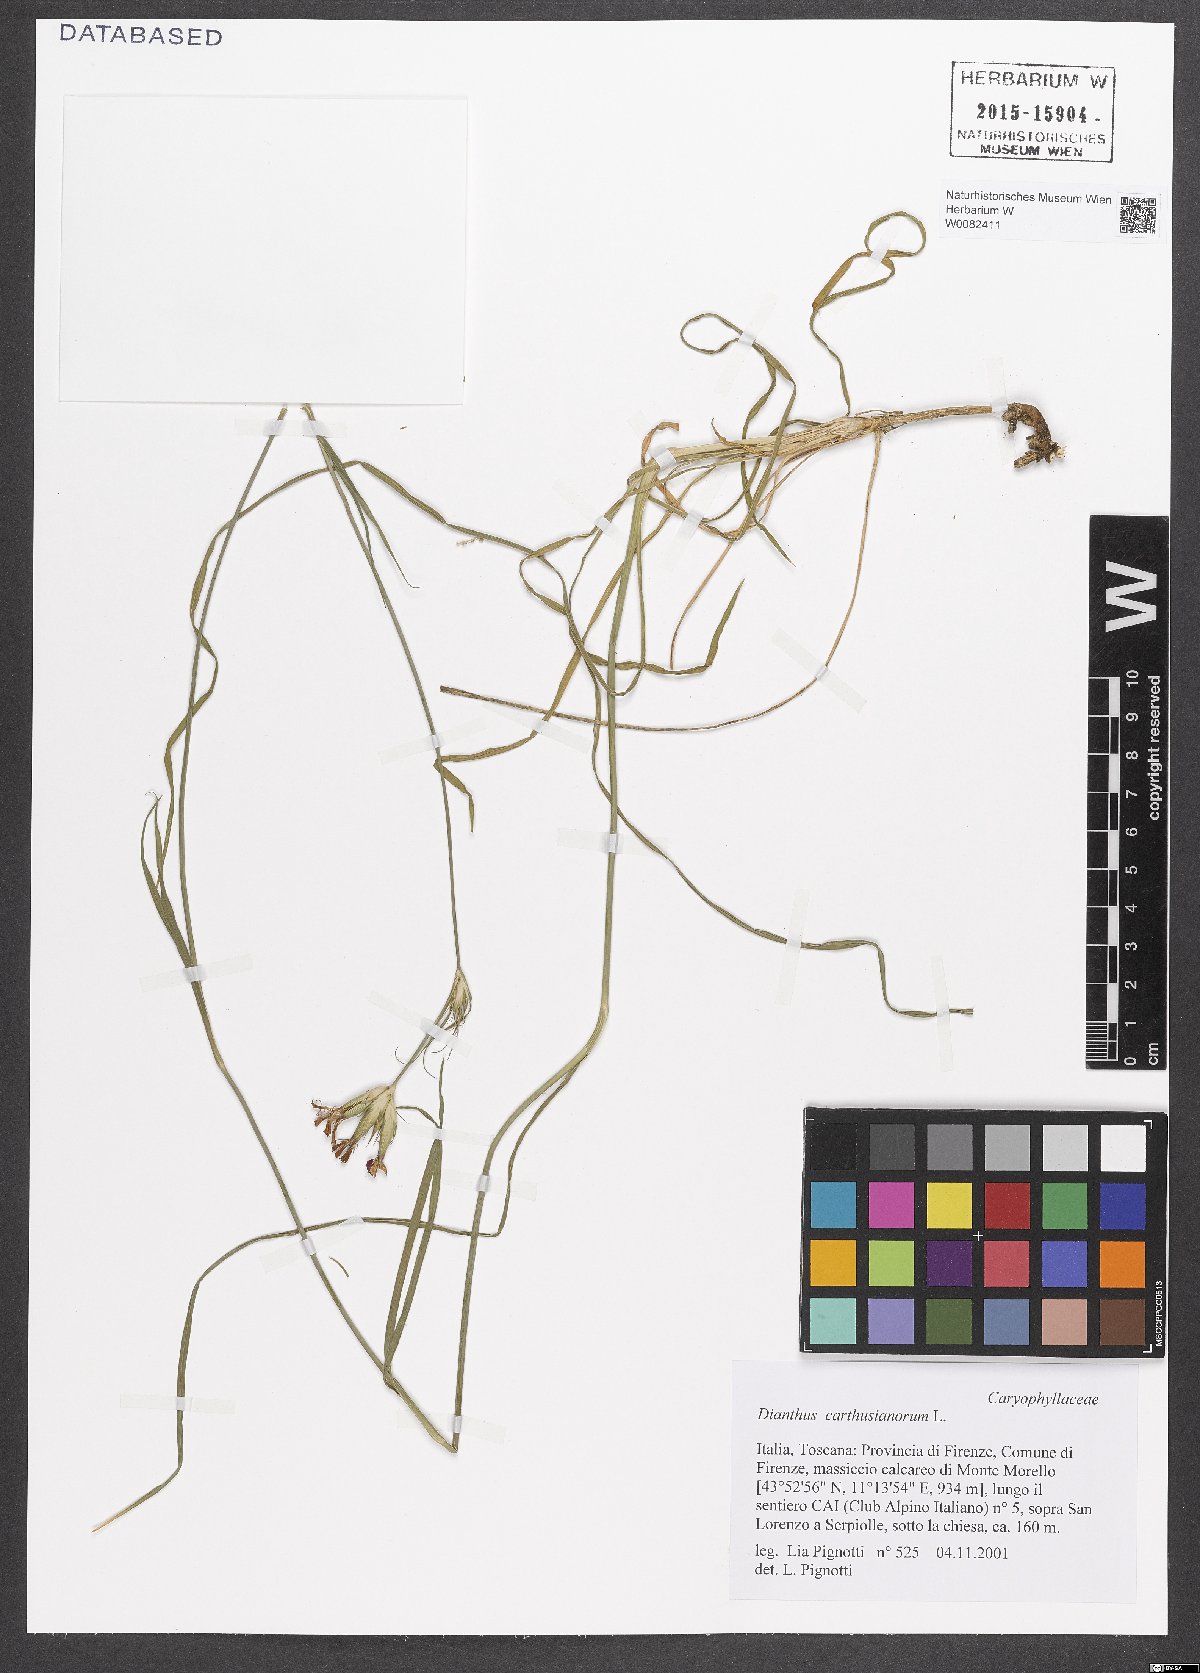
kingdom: Plantae
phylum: Tracheophyta
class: Magnoliopsida
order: Caryophyllales
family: Caryophyllaceae
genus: Dianthus
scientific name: Dianthus carthusianorum
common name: Carthusian pink
